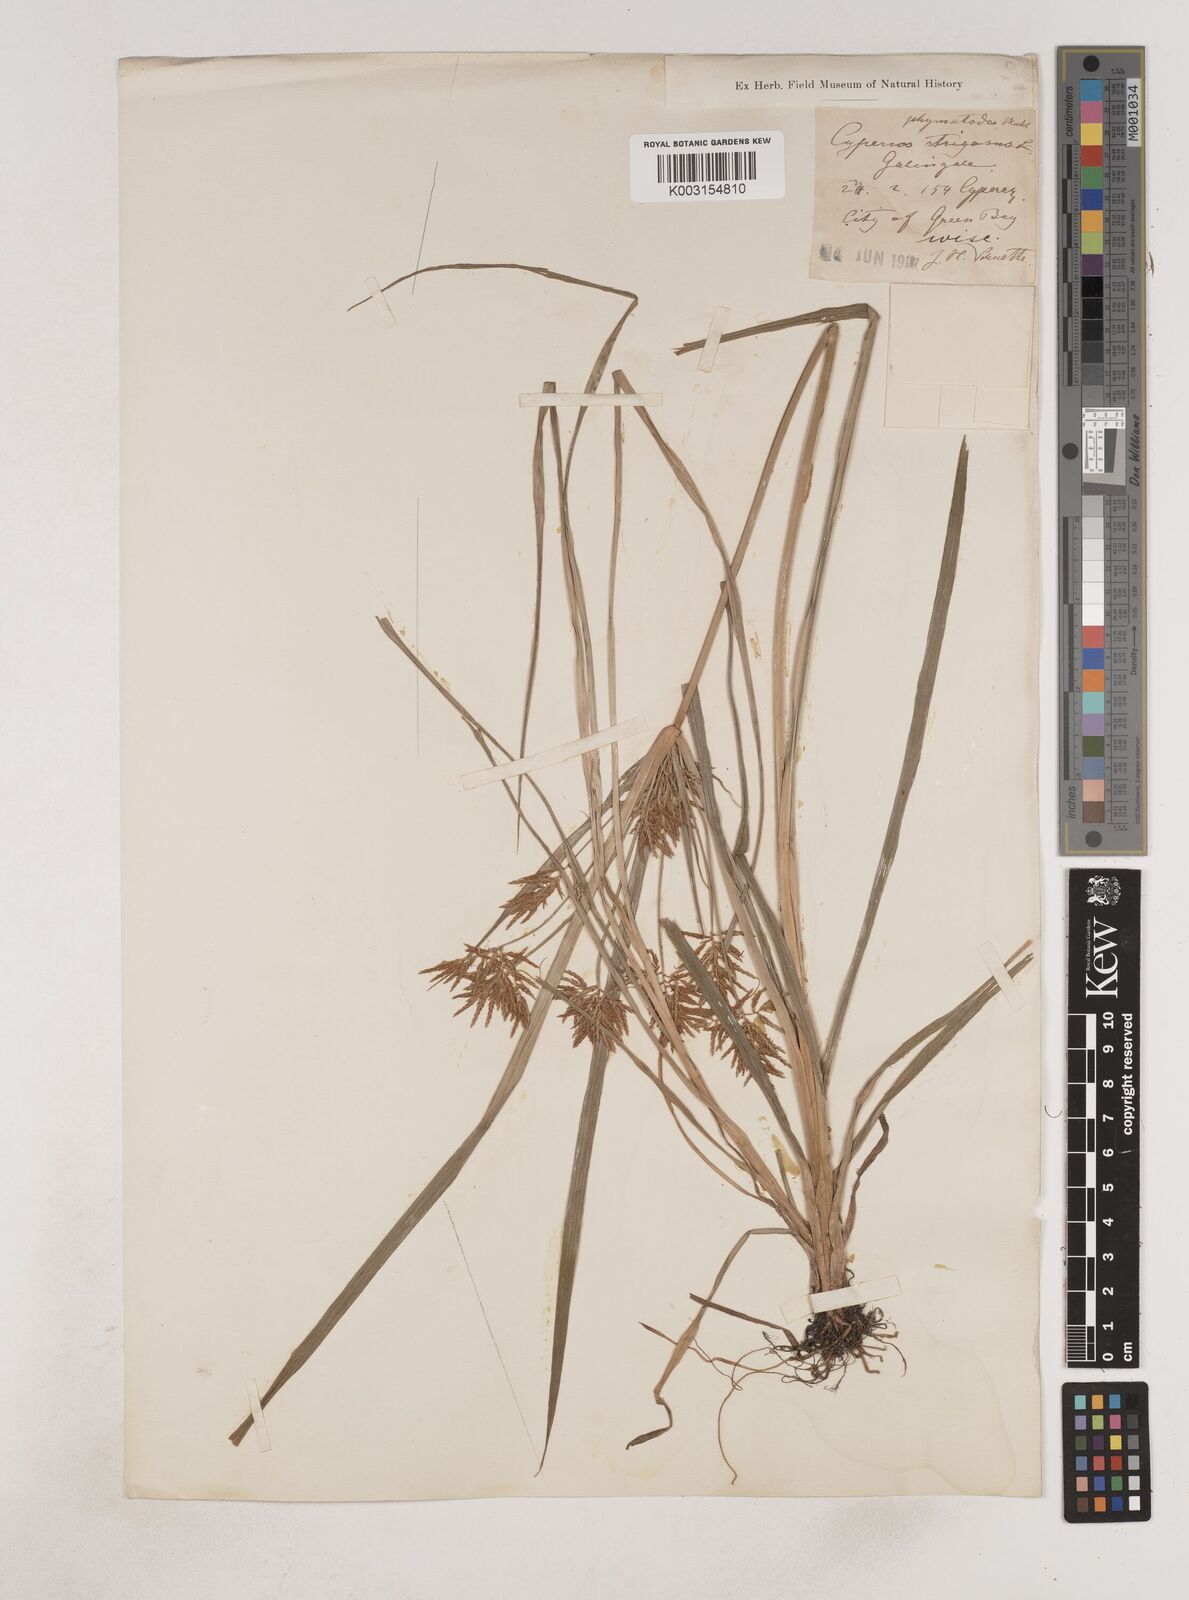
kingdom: Plantae
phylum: Tracheophyta
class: Liliopsida
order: Poales
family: Cyperaceae
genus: Cyperus
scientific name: Cyperus esculentus
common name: Yellow nutsedge
